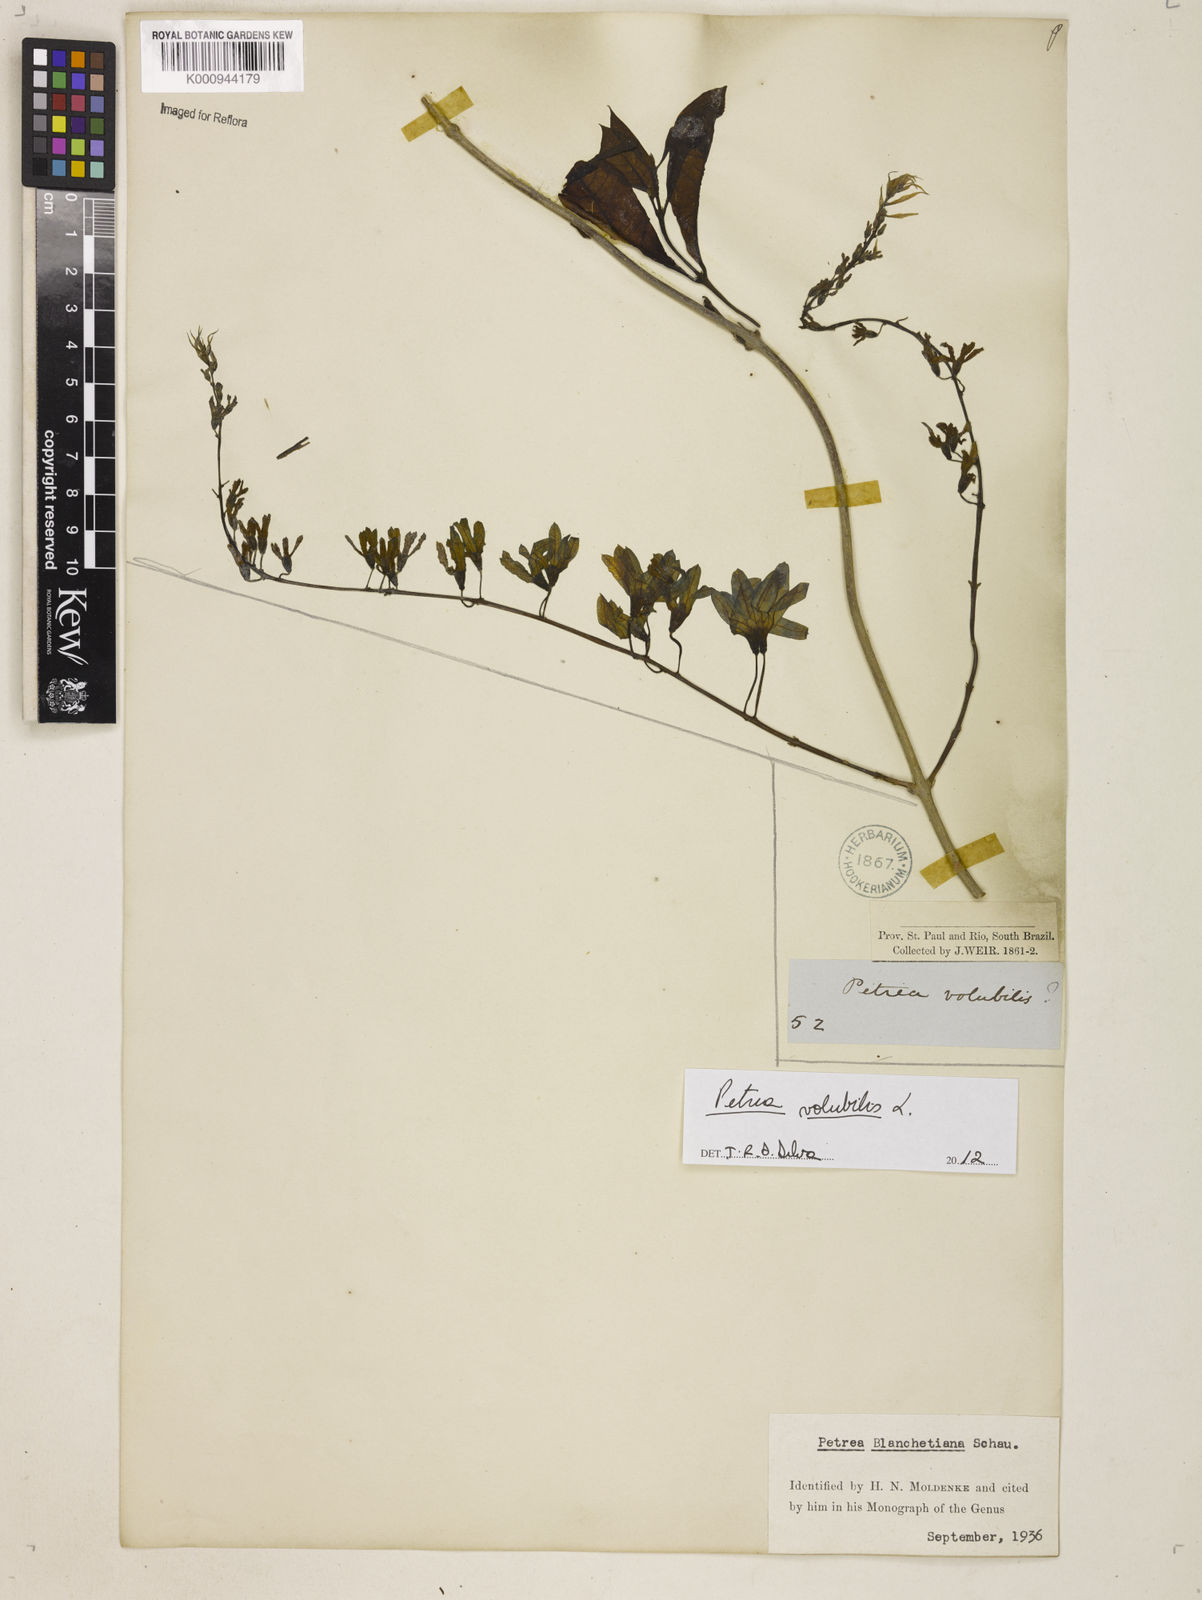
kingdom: Plantae
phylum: Tracheophyta
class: Magnoliopsida
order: Lamiales
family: Verbenaceae
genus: Petrea
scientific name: Petrea bracteata
